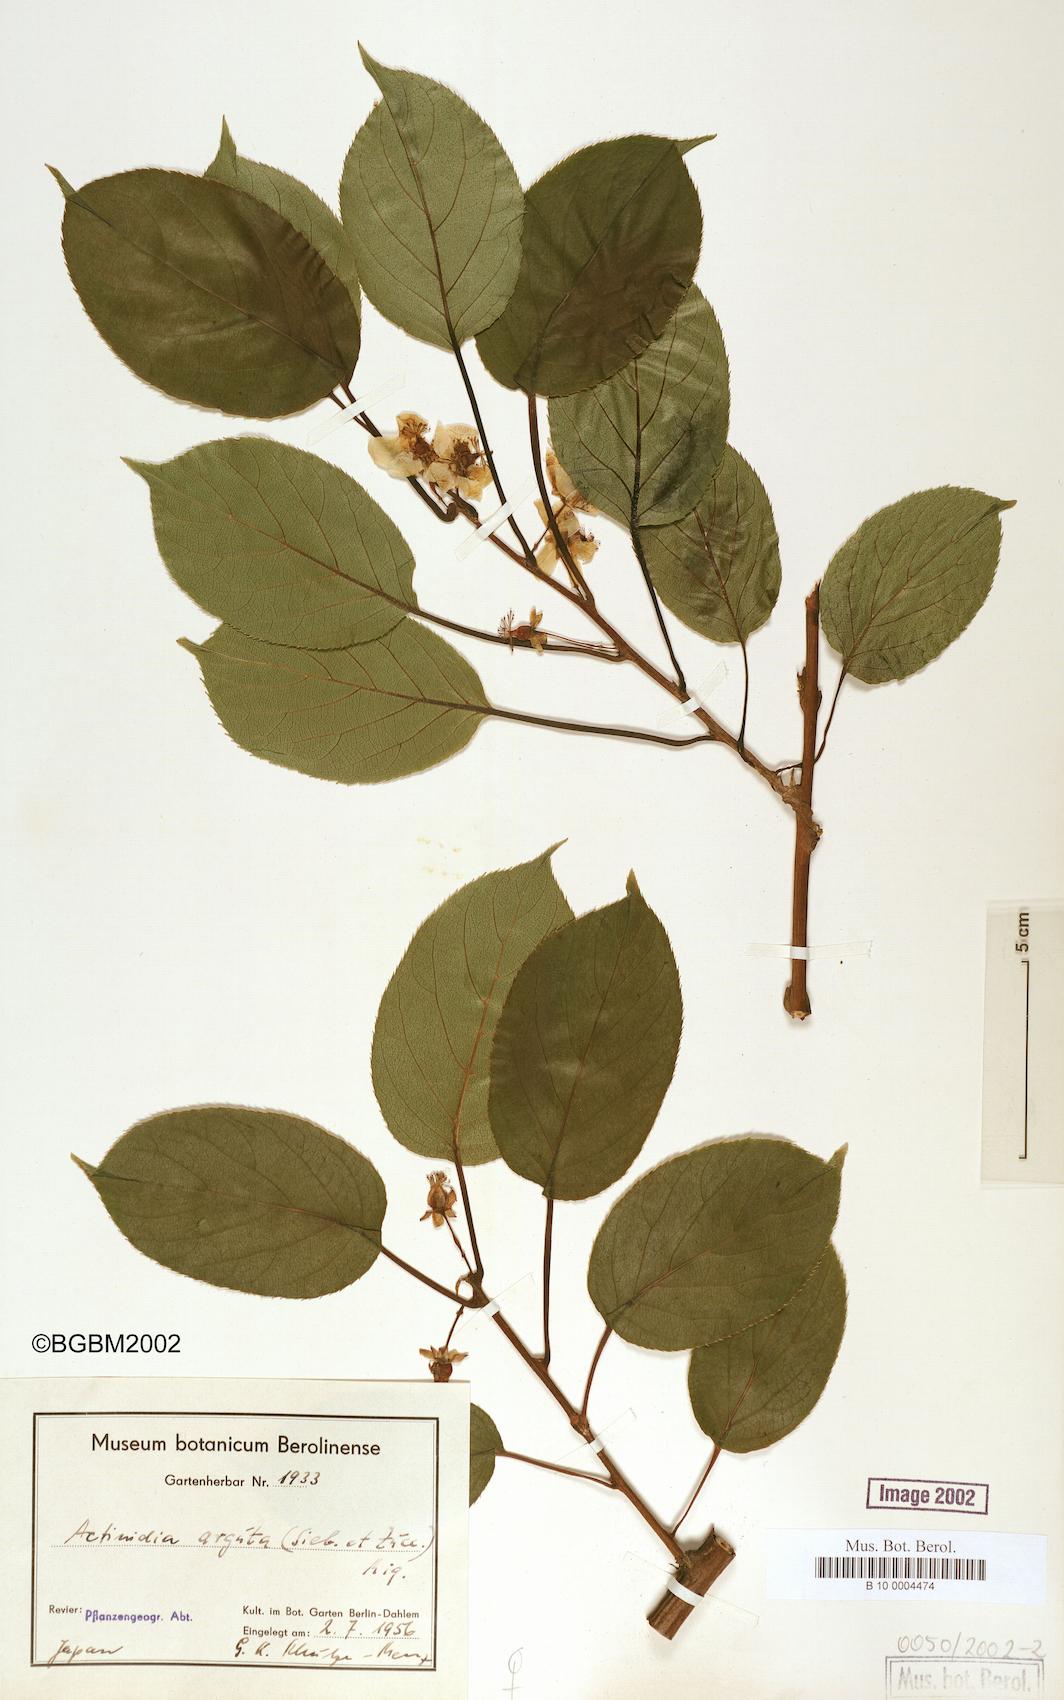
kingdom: Plantae
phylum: Tracheophyta
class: Magnoliopsida
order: Ericales
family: Actinidiaceae
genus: Actinidia
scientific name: Actinidia arguta
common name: Tara vine
